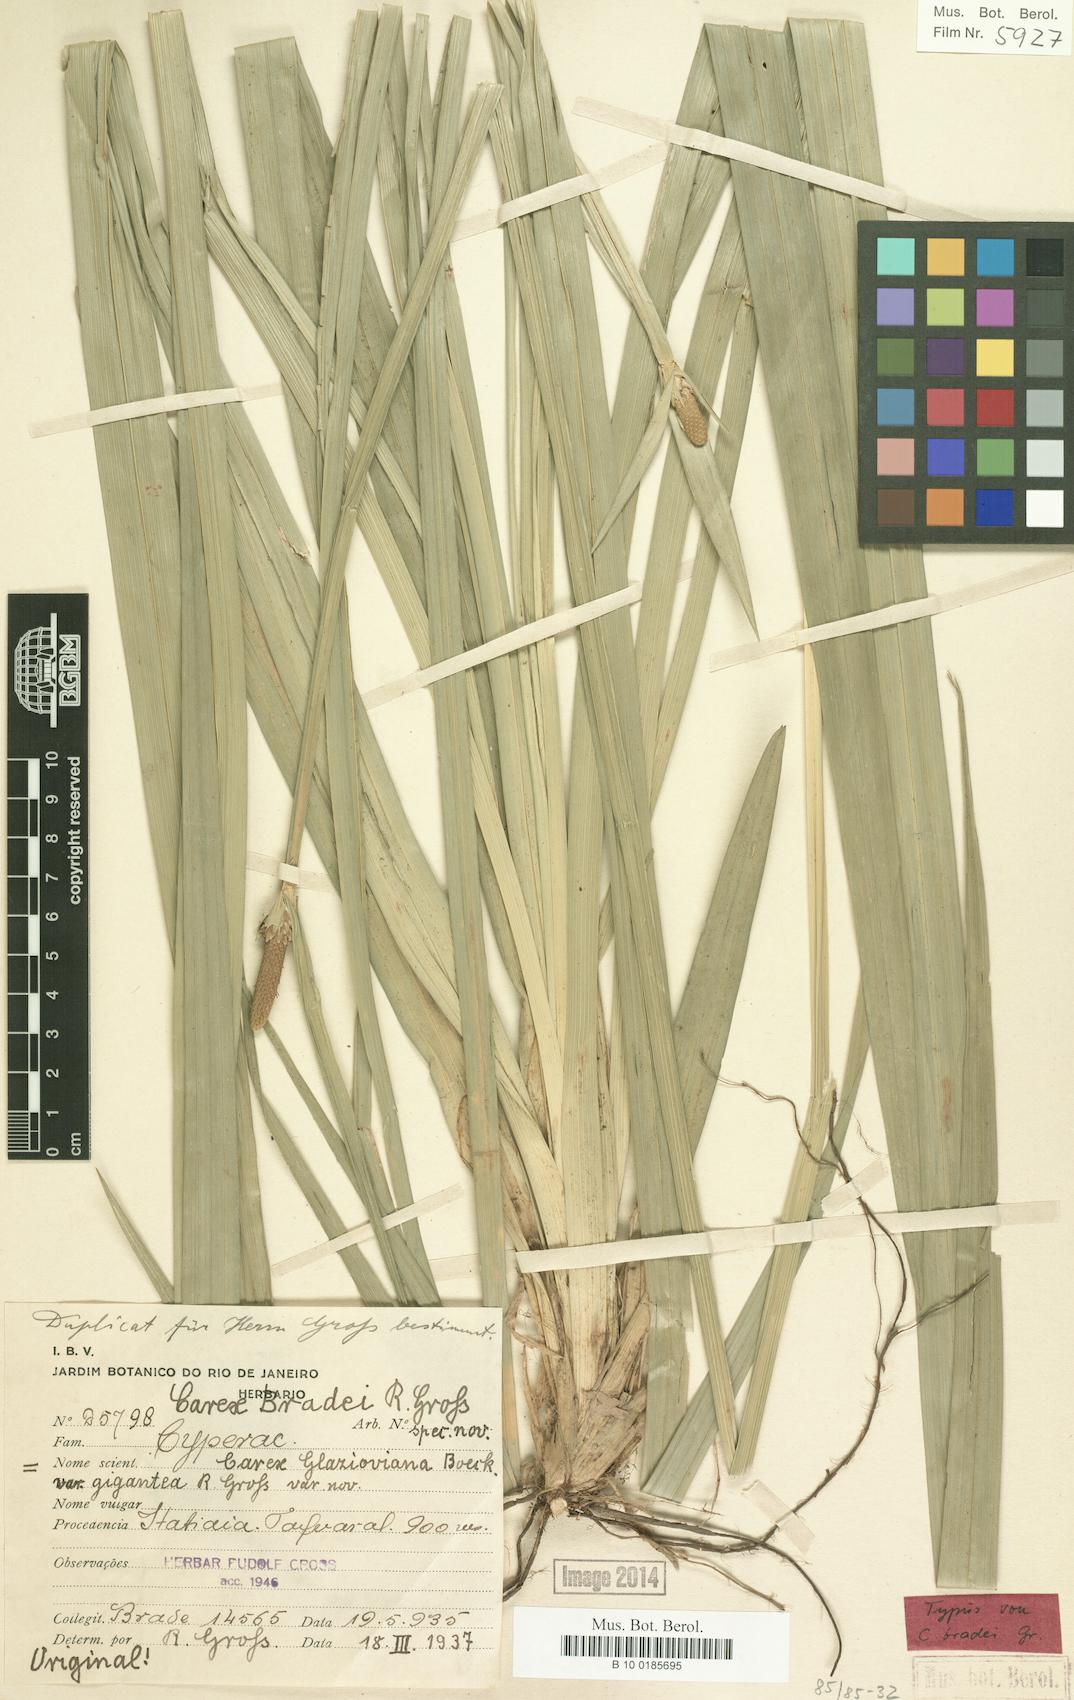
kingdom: Plantae
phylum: Tracheophyta
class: Liliopsida
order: Poales
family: Cyperaceae
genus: Carex
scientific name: Carex bradei
